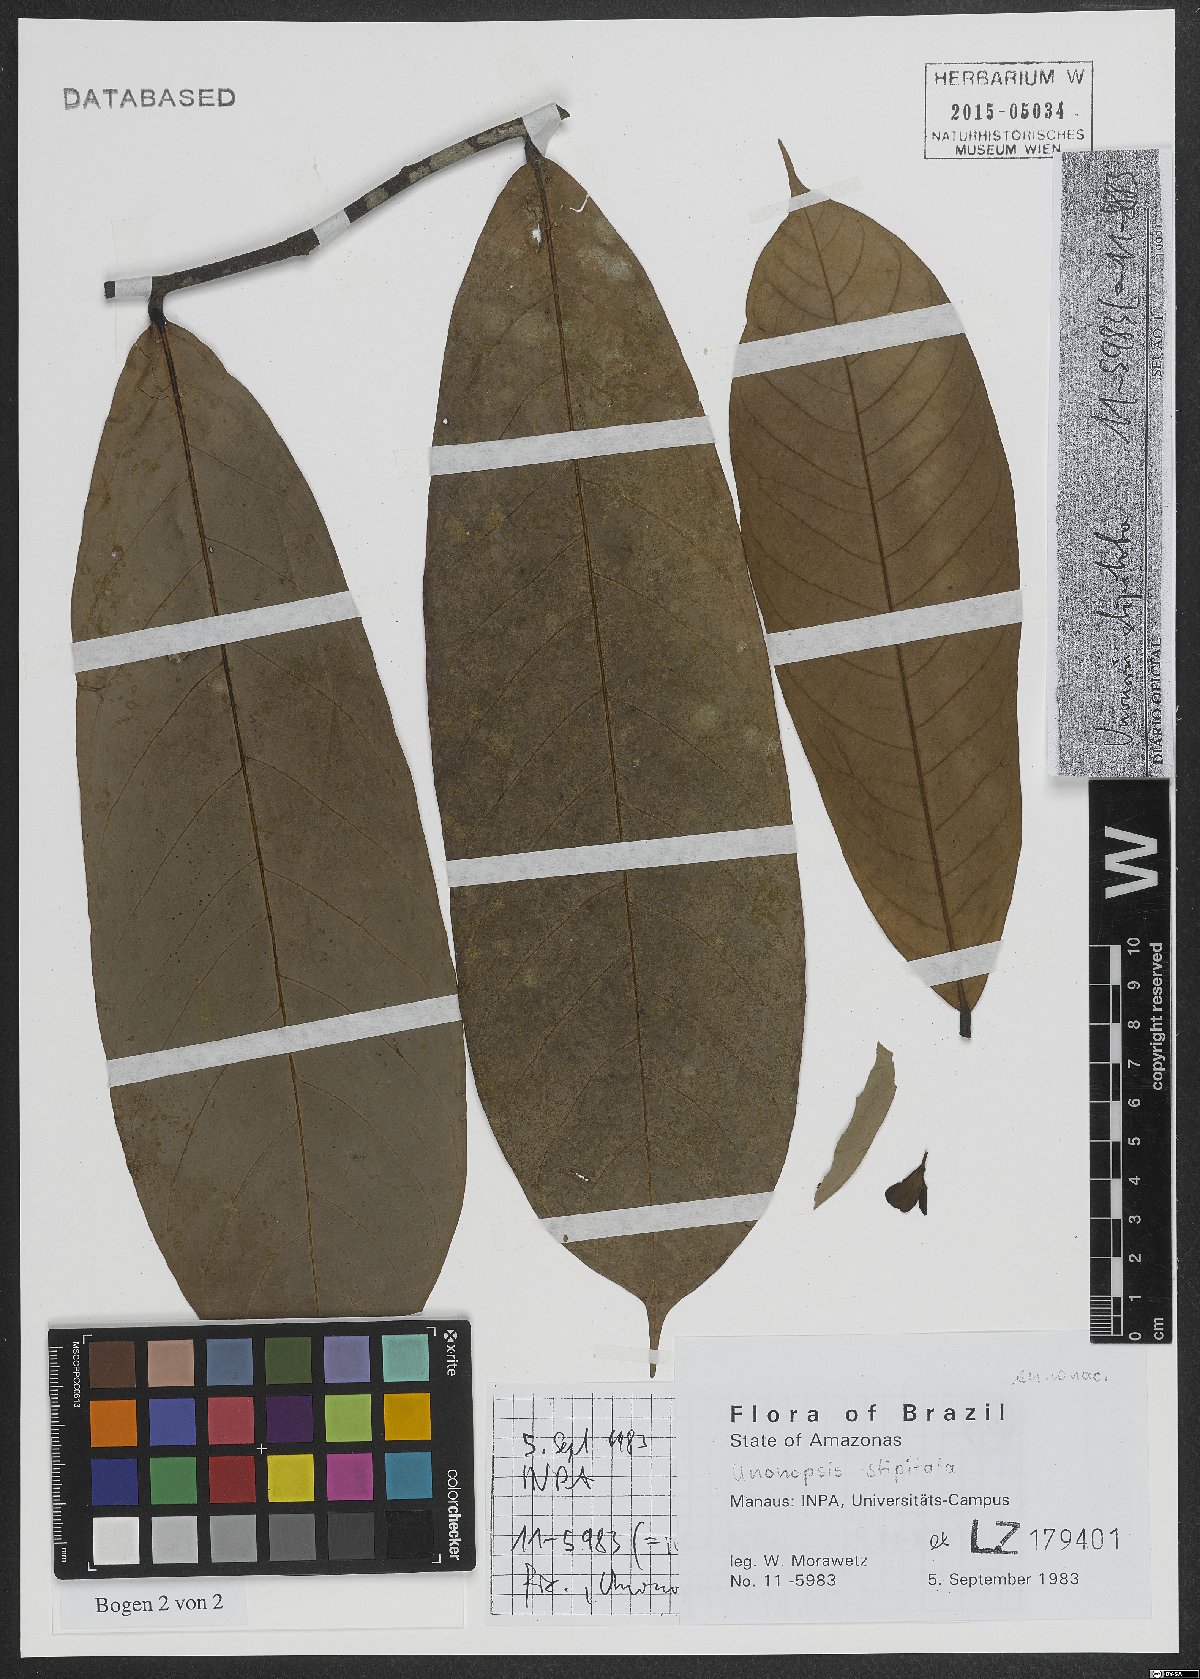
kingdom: Plantae
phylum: Tracheophyta
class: Magnoliopsida
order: Magnoliales
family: Annonaceae
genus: Unonopsis
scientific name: Unonopsis stipitata
